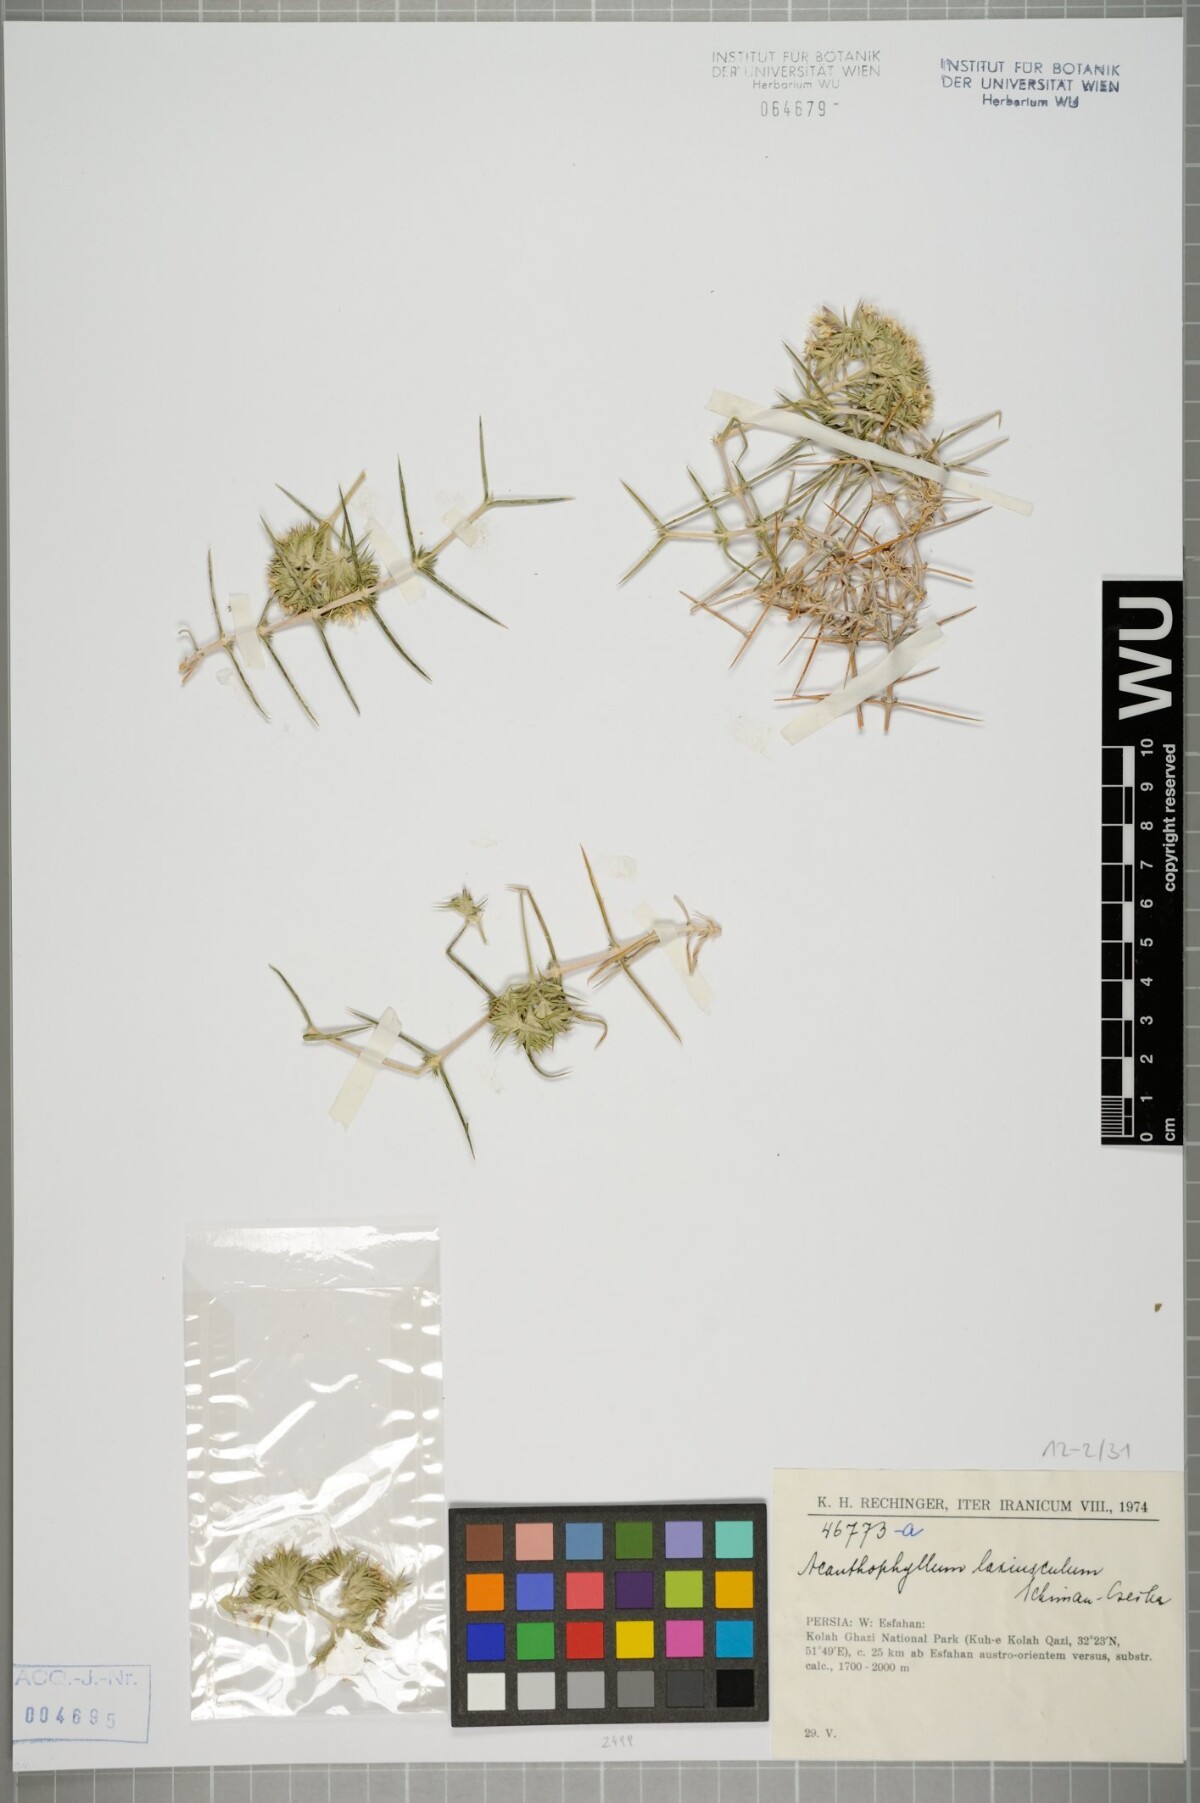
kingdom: Plantae
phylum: Tracheophyta
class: Magnoliopsida
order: Caryophyllales
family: Caryophyllaceae
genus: Acanthophyllum
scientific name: Acanthophyllum laxiusculum
